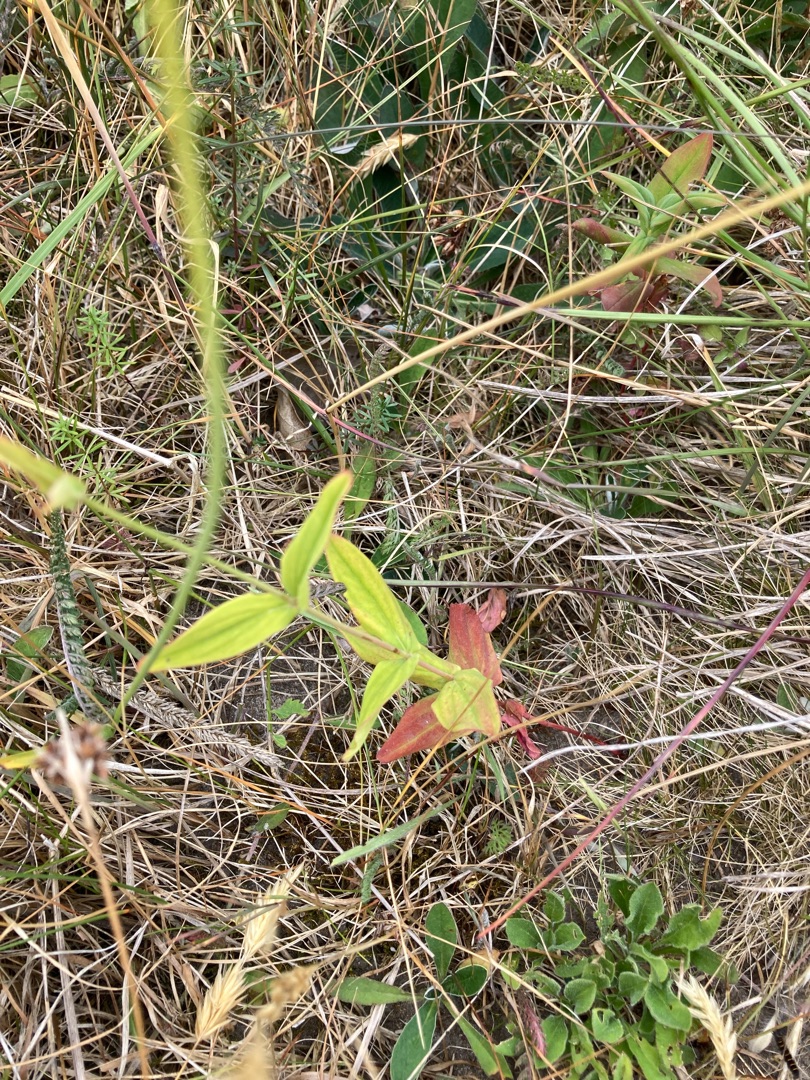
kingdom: Plantae
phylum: Tracheophyta
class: Magnoliopsida
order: Malpighiales
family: Hypericaceae
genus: Hypericum
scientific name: Hypericum montanum
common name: Bjerg-perikon
